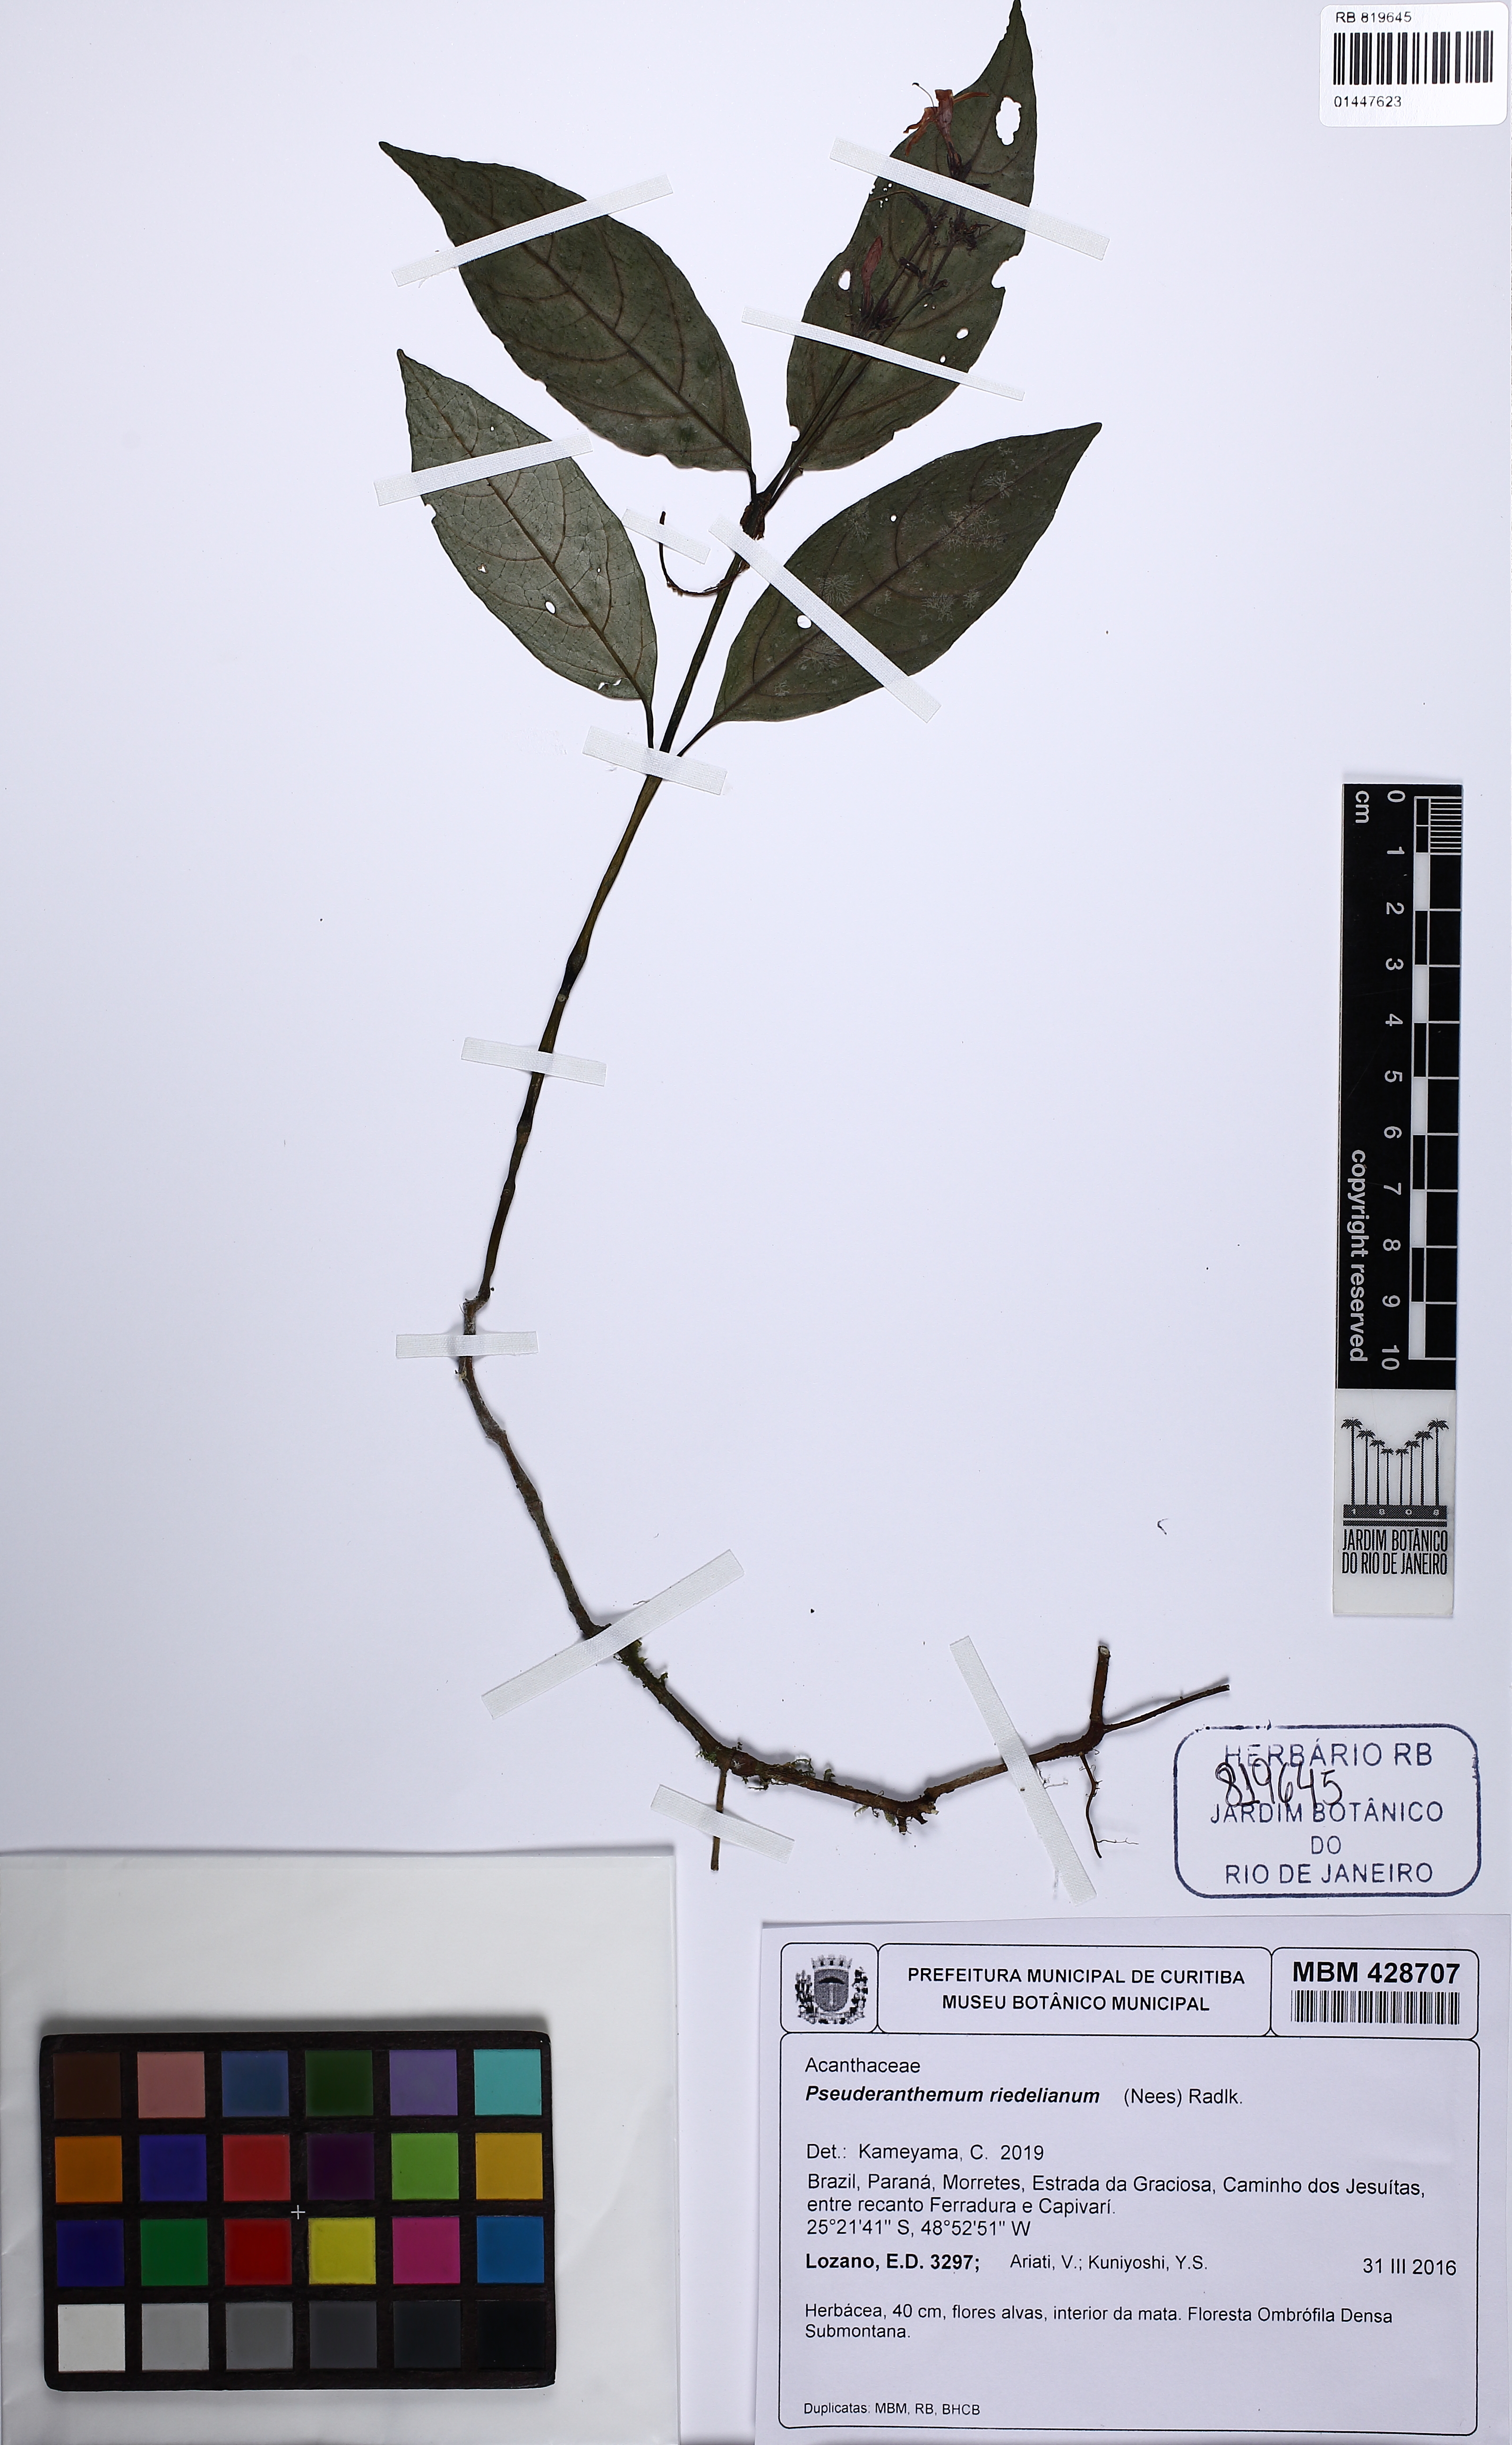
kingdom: Plantae
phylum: Tracheophyta
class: Magnoliopsida
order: Lamiales
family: Acanthaceae
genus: Pseuderanthemum
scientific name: Pseuderanthemum riedelianum
